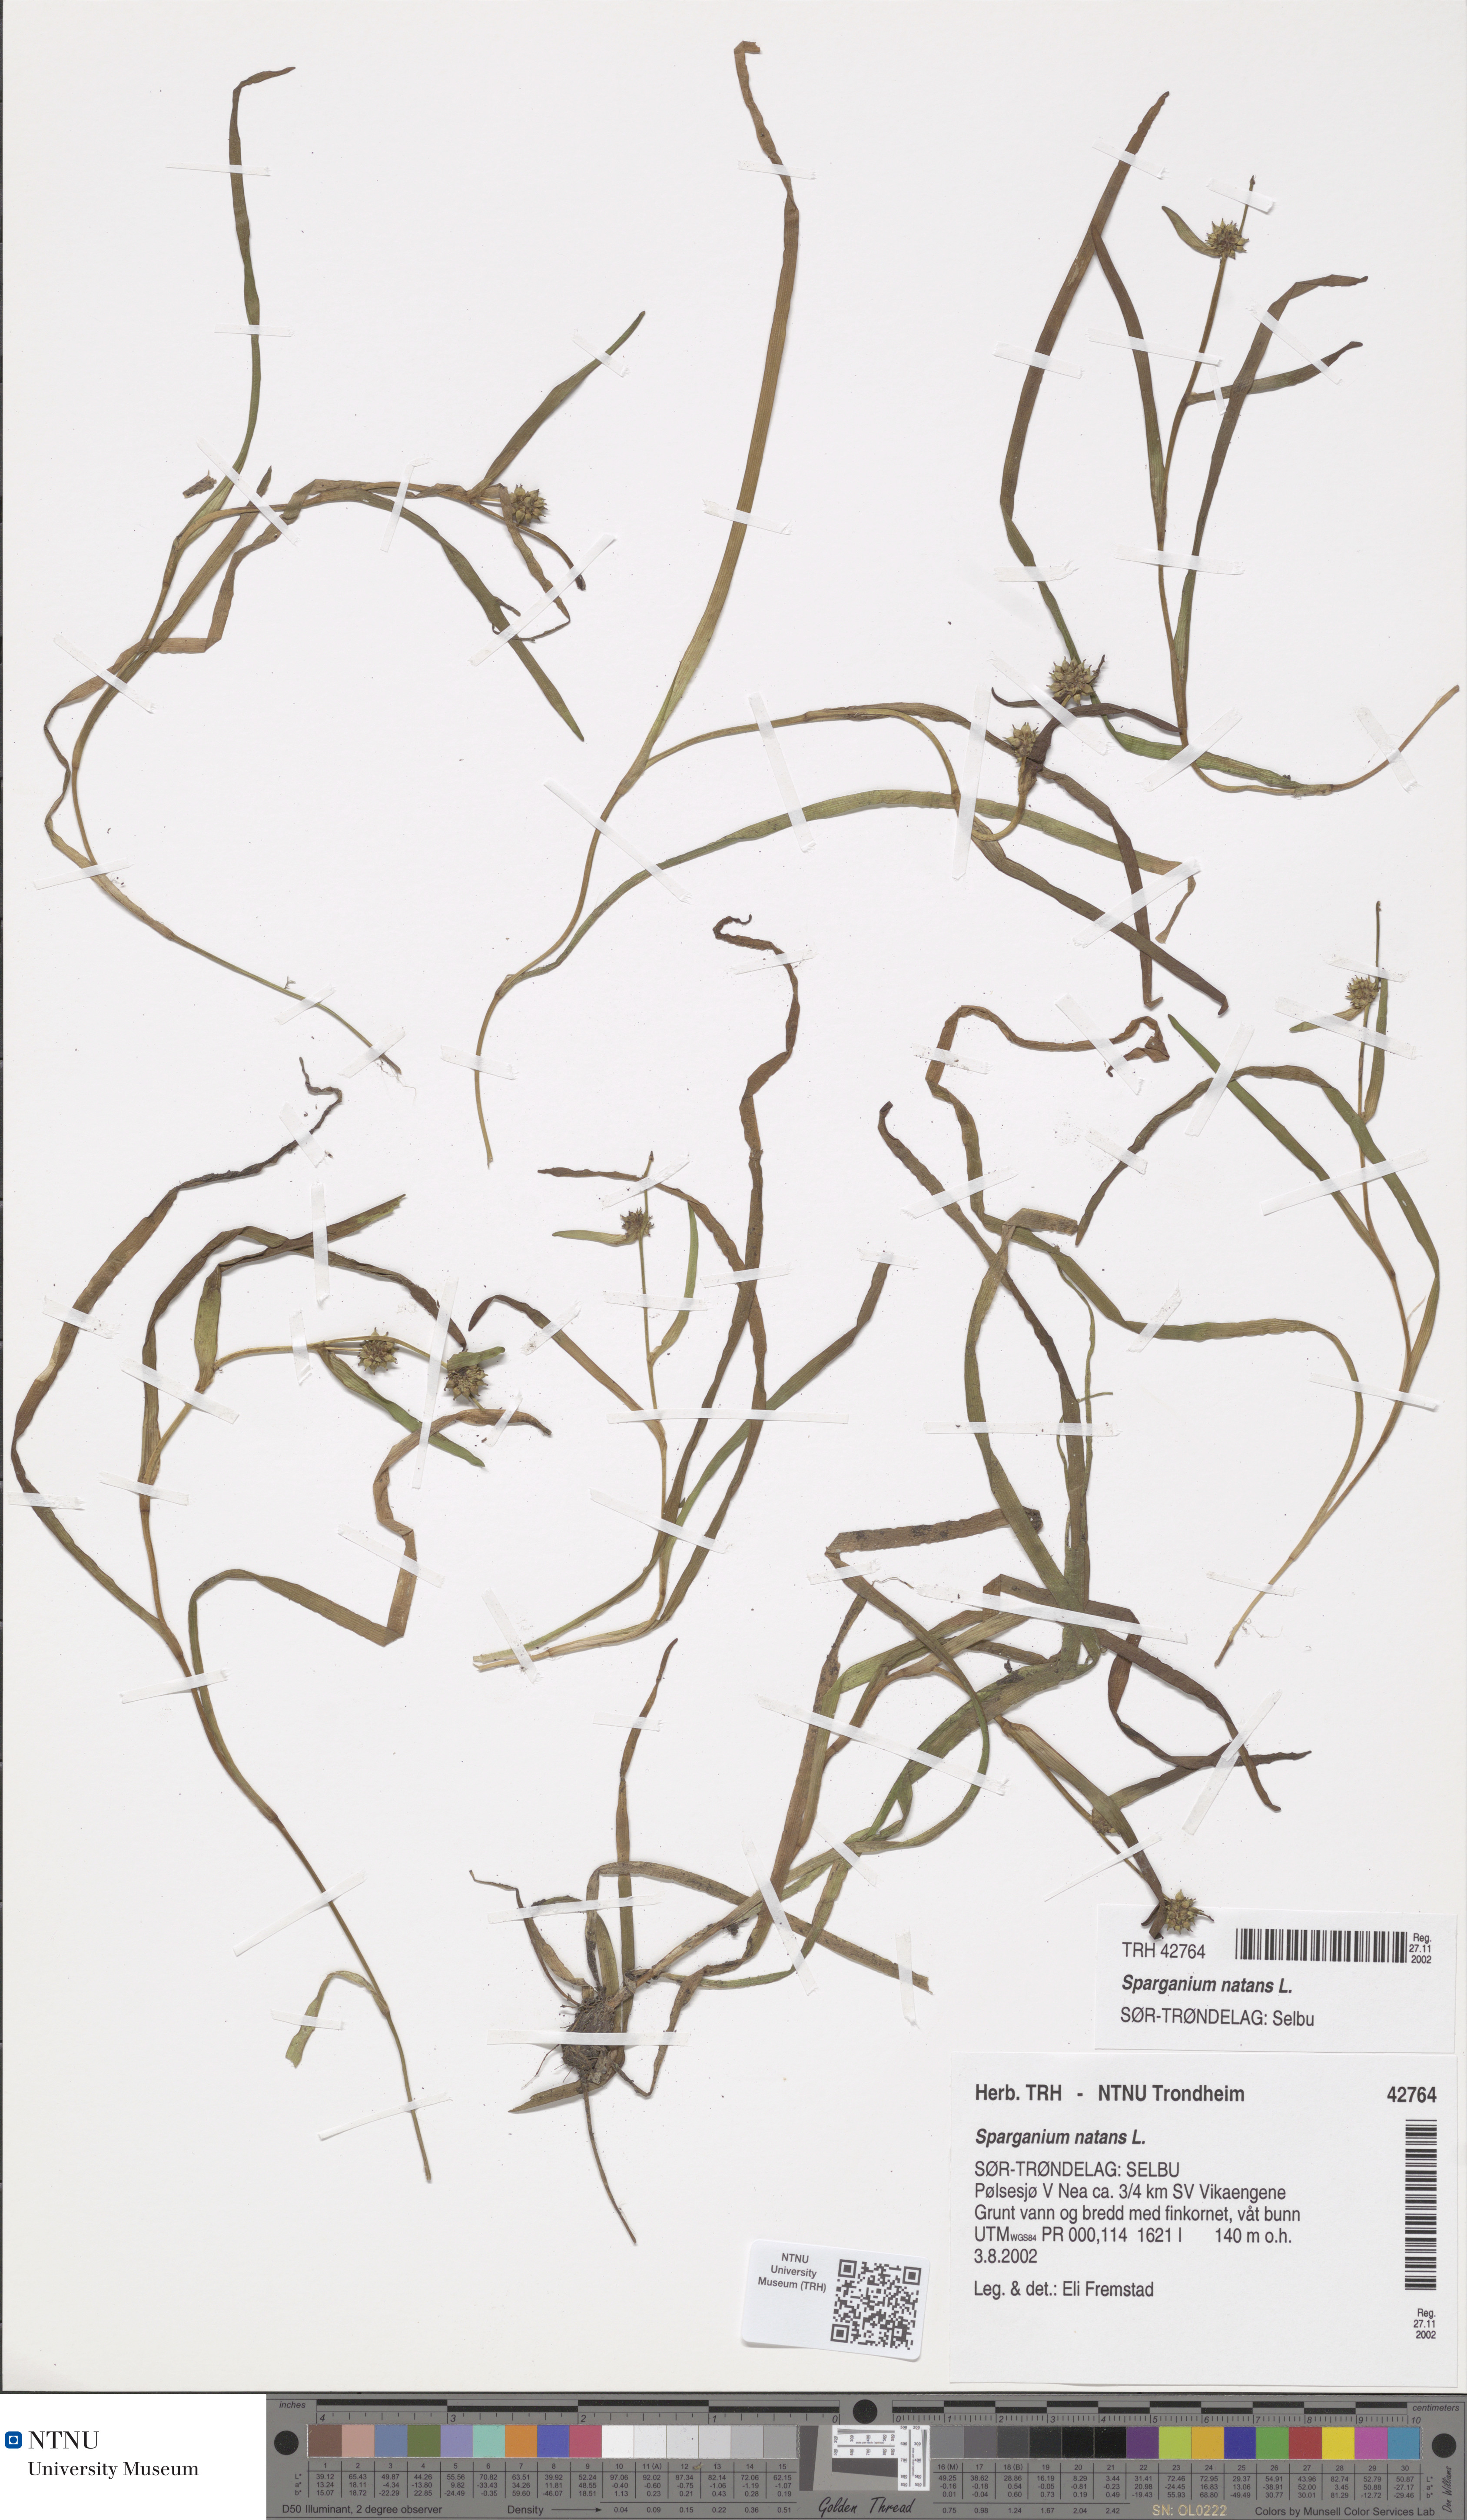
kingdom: Plantae
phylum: Tracheophyta
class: Liliopsida
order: Poales
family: Typhaceae
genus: Sparganium
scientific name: Sparganium natans
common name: Least bur-reed
